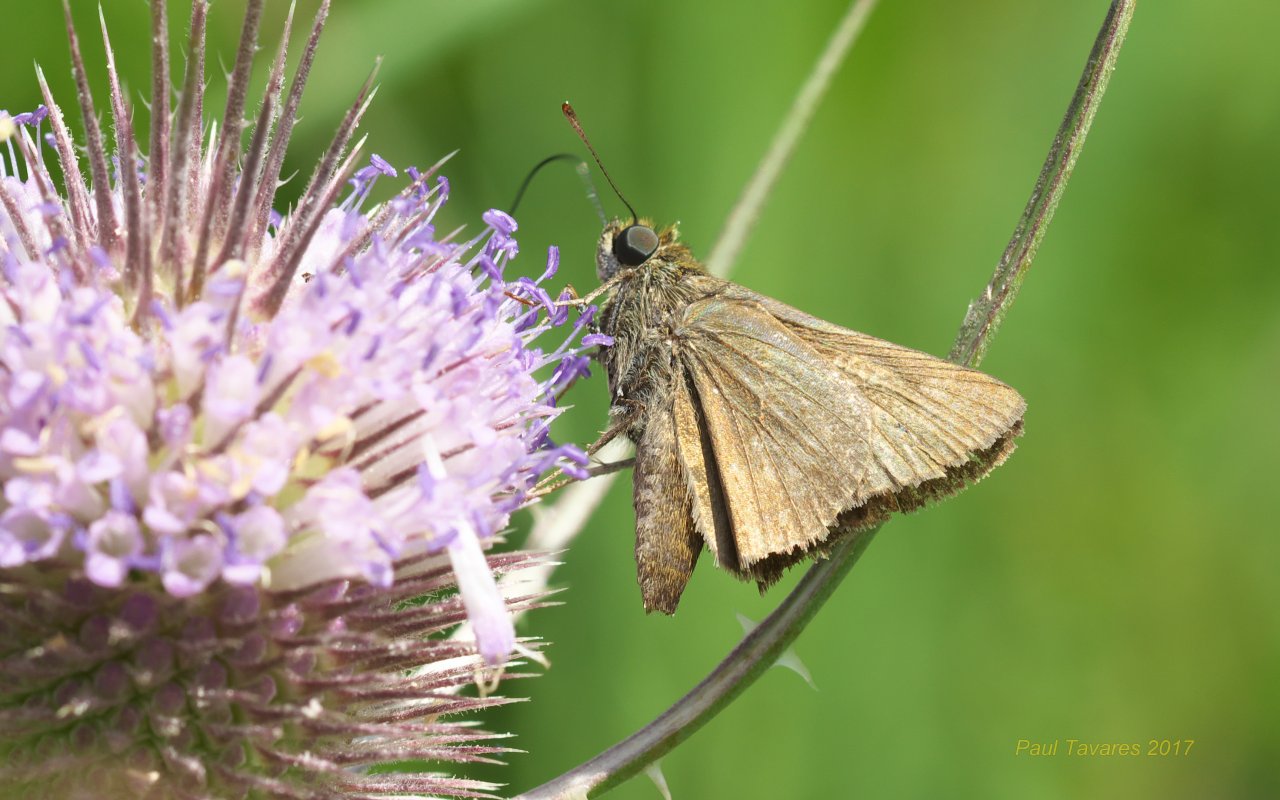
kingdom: Animalia
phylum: Arthropoda
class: Insecta
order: Lepidoptera
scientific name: Lepidoptera
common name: Butterflies
